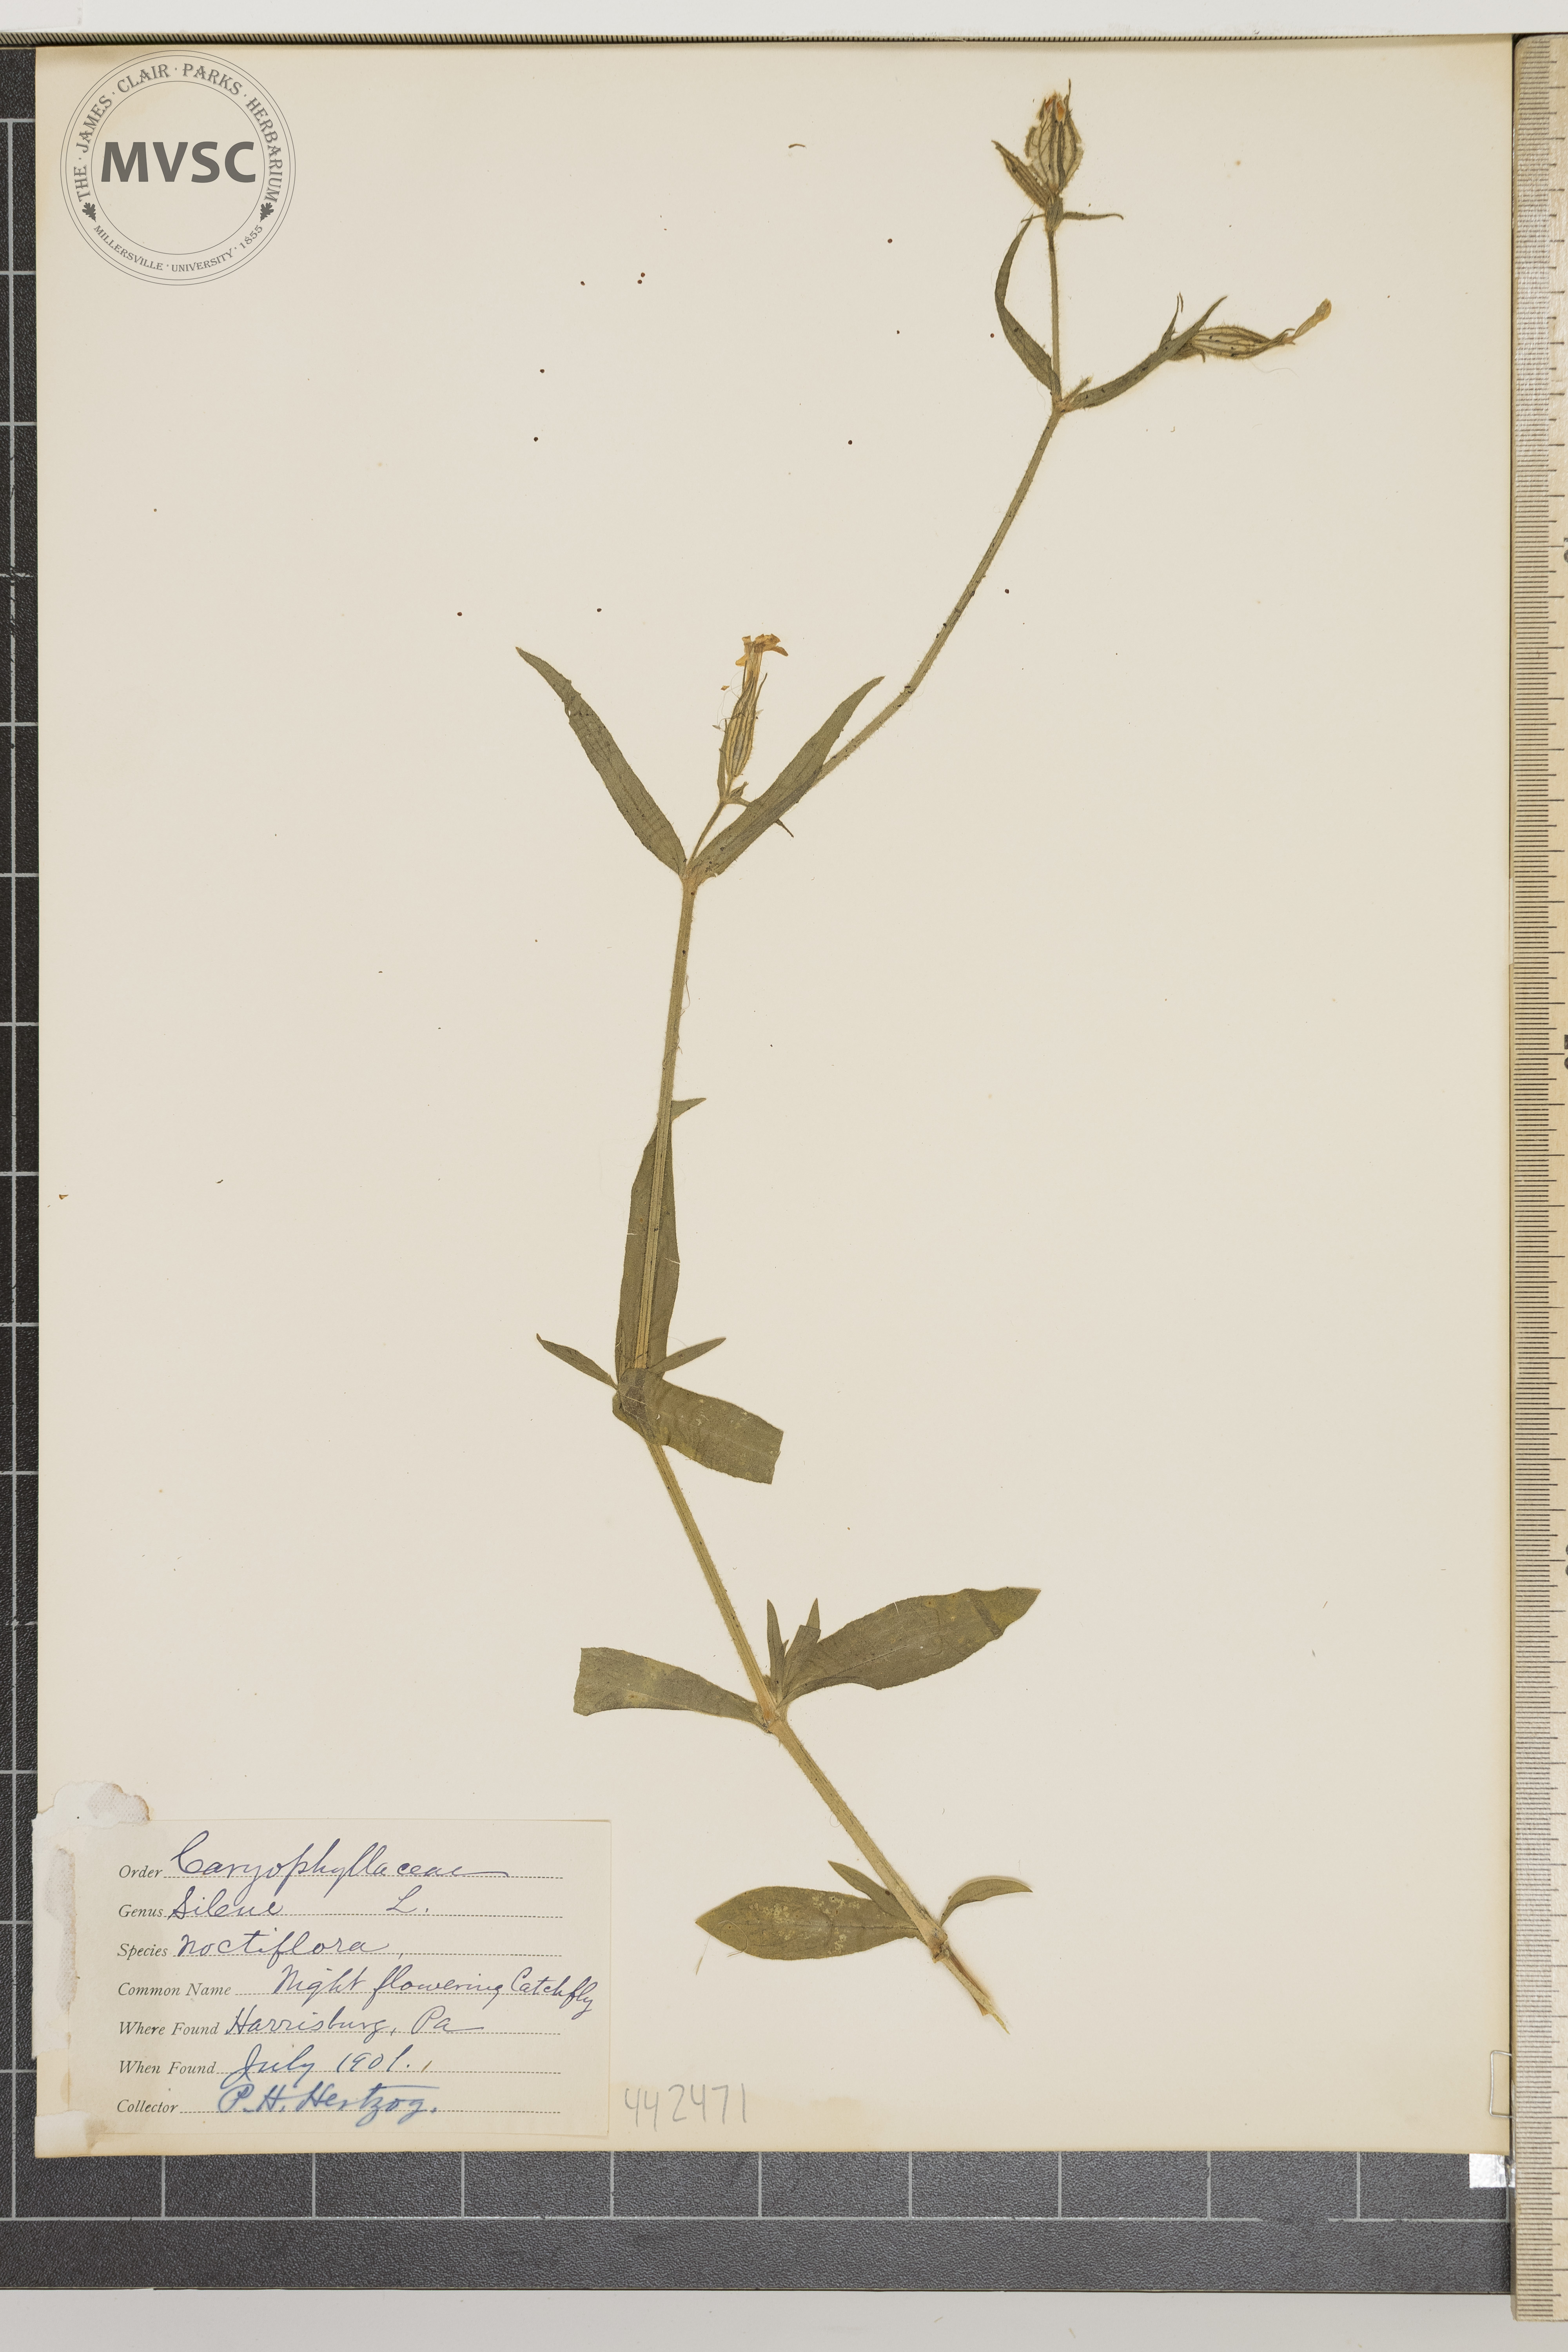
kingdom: Plantae
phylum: Tracheophyta
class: Magnoliopsida
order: Caryophyllales
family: Caryophyllaceae
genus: Silene
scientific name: Silene noctiflora
